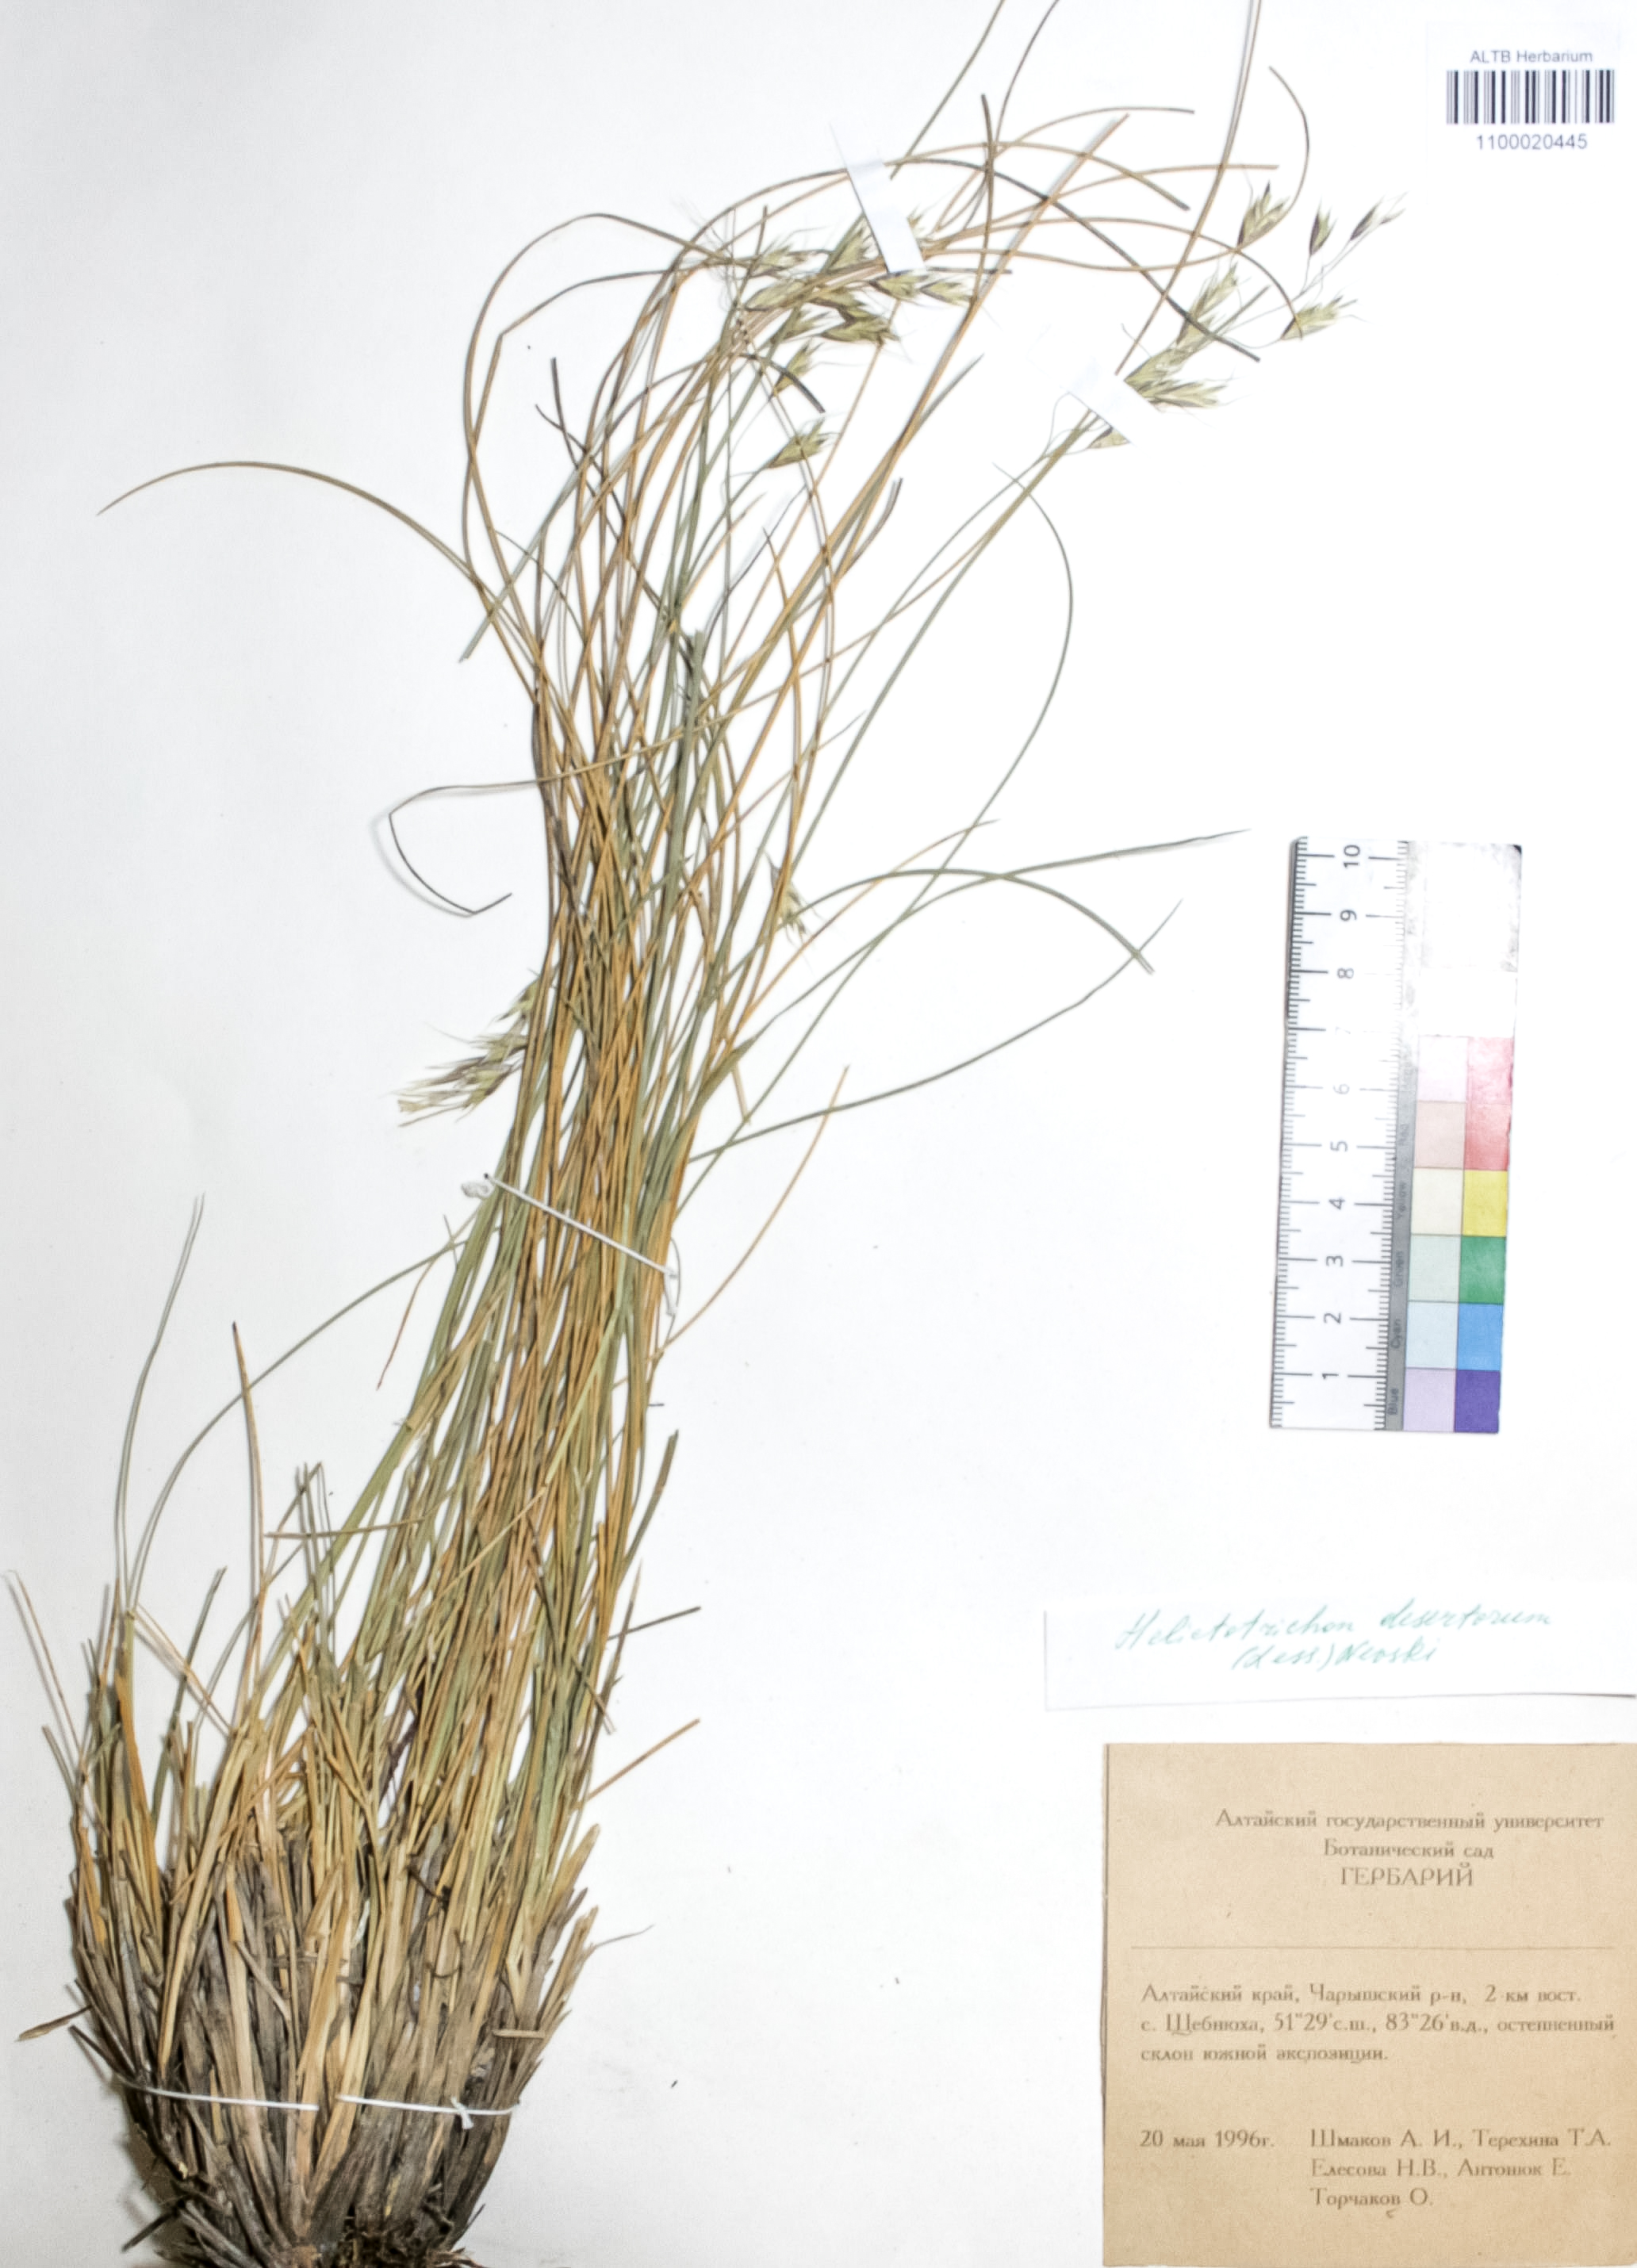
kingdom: Plantae
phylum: Tracheophyta
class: Liliopsida
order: Poales
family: Poaceae
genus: Helictotrichon
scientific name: Helictotrichon desertorum
